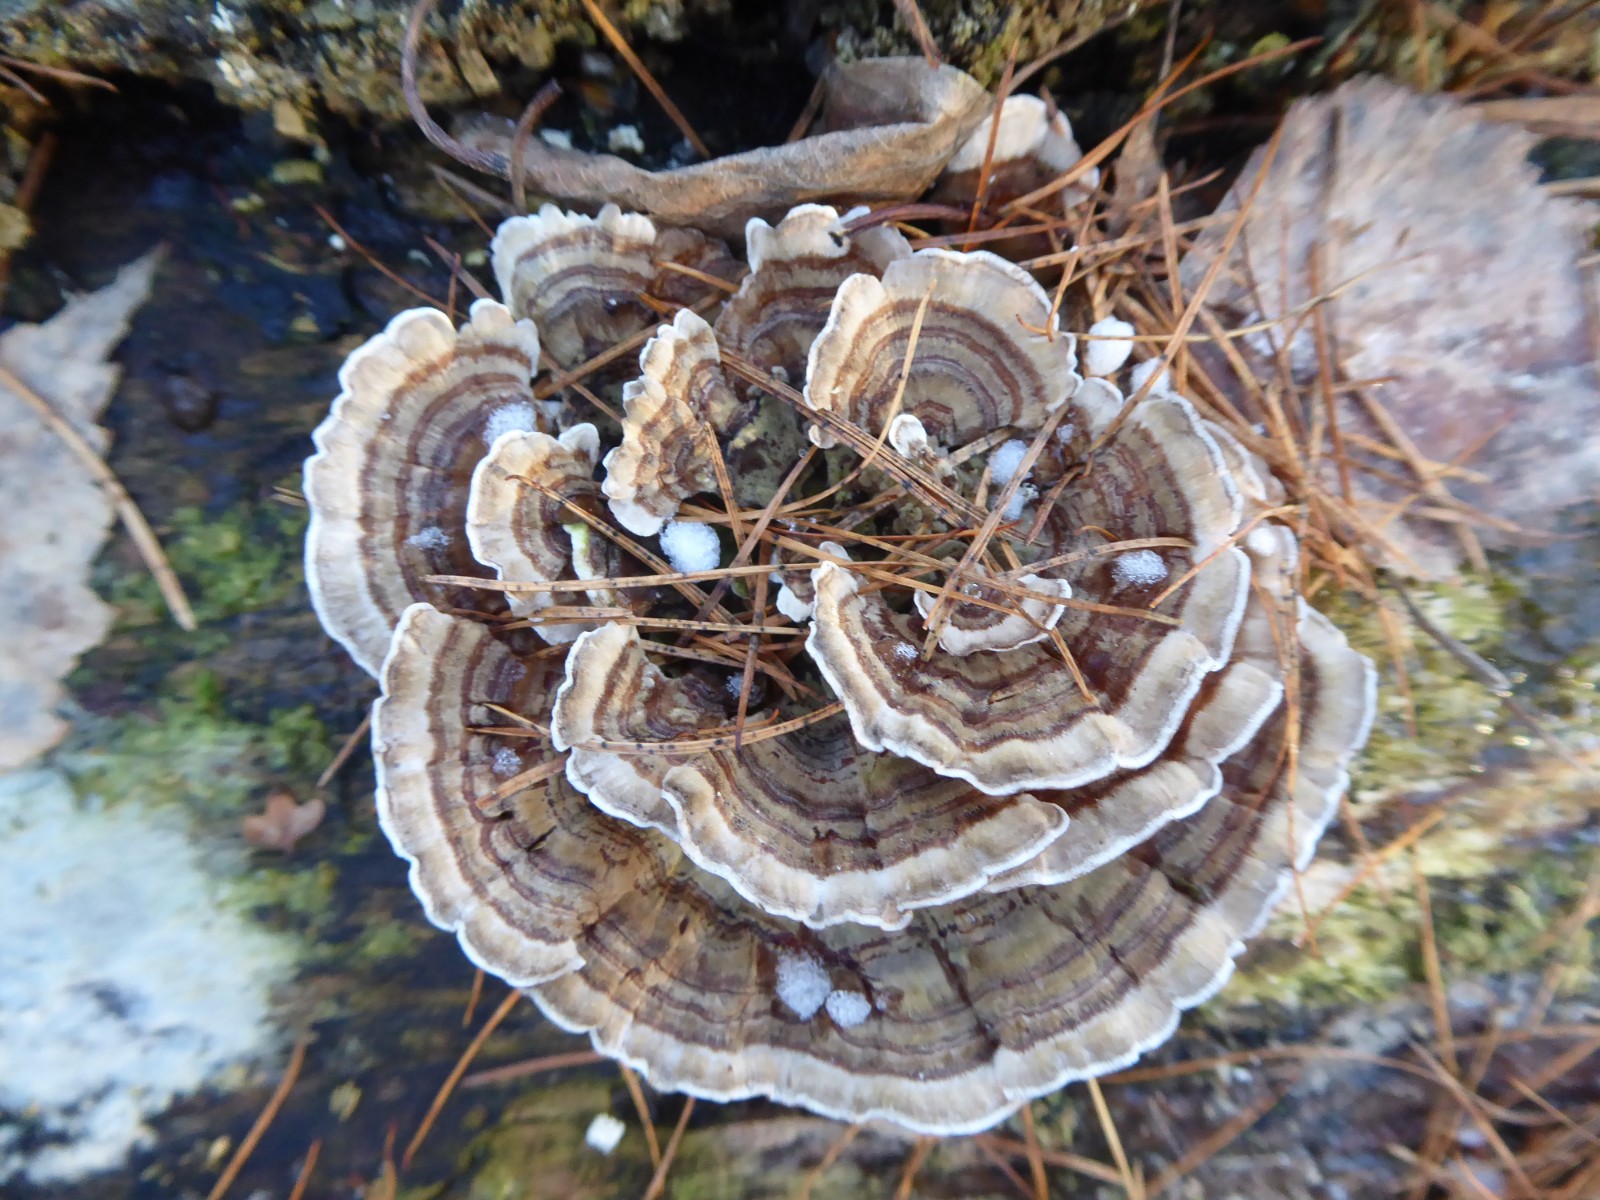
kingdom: Fungi
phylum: Basidiomycota
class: Agaricomycetes
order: Polyporales
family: Polyporaceae
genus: Trametes
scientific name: Trametes versicolor
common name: broget læderporesvamp
